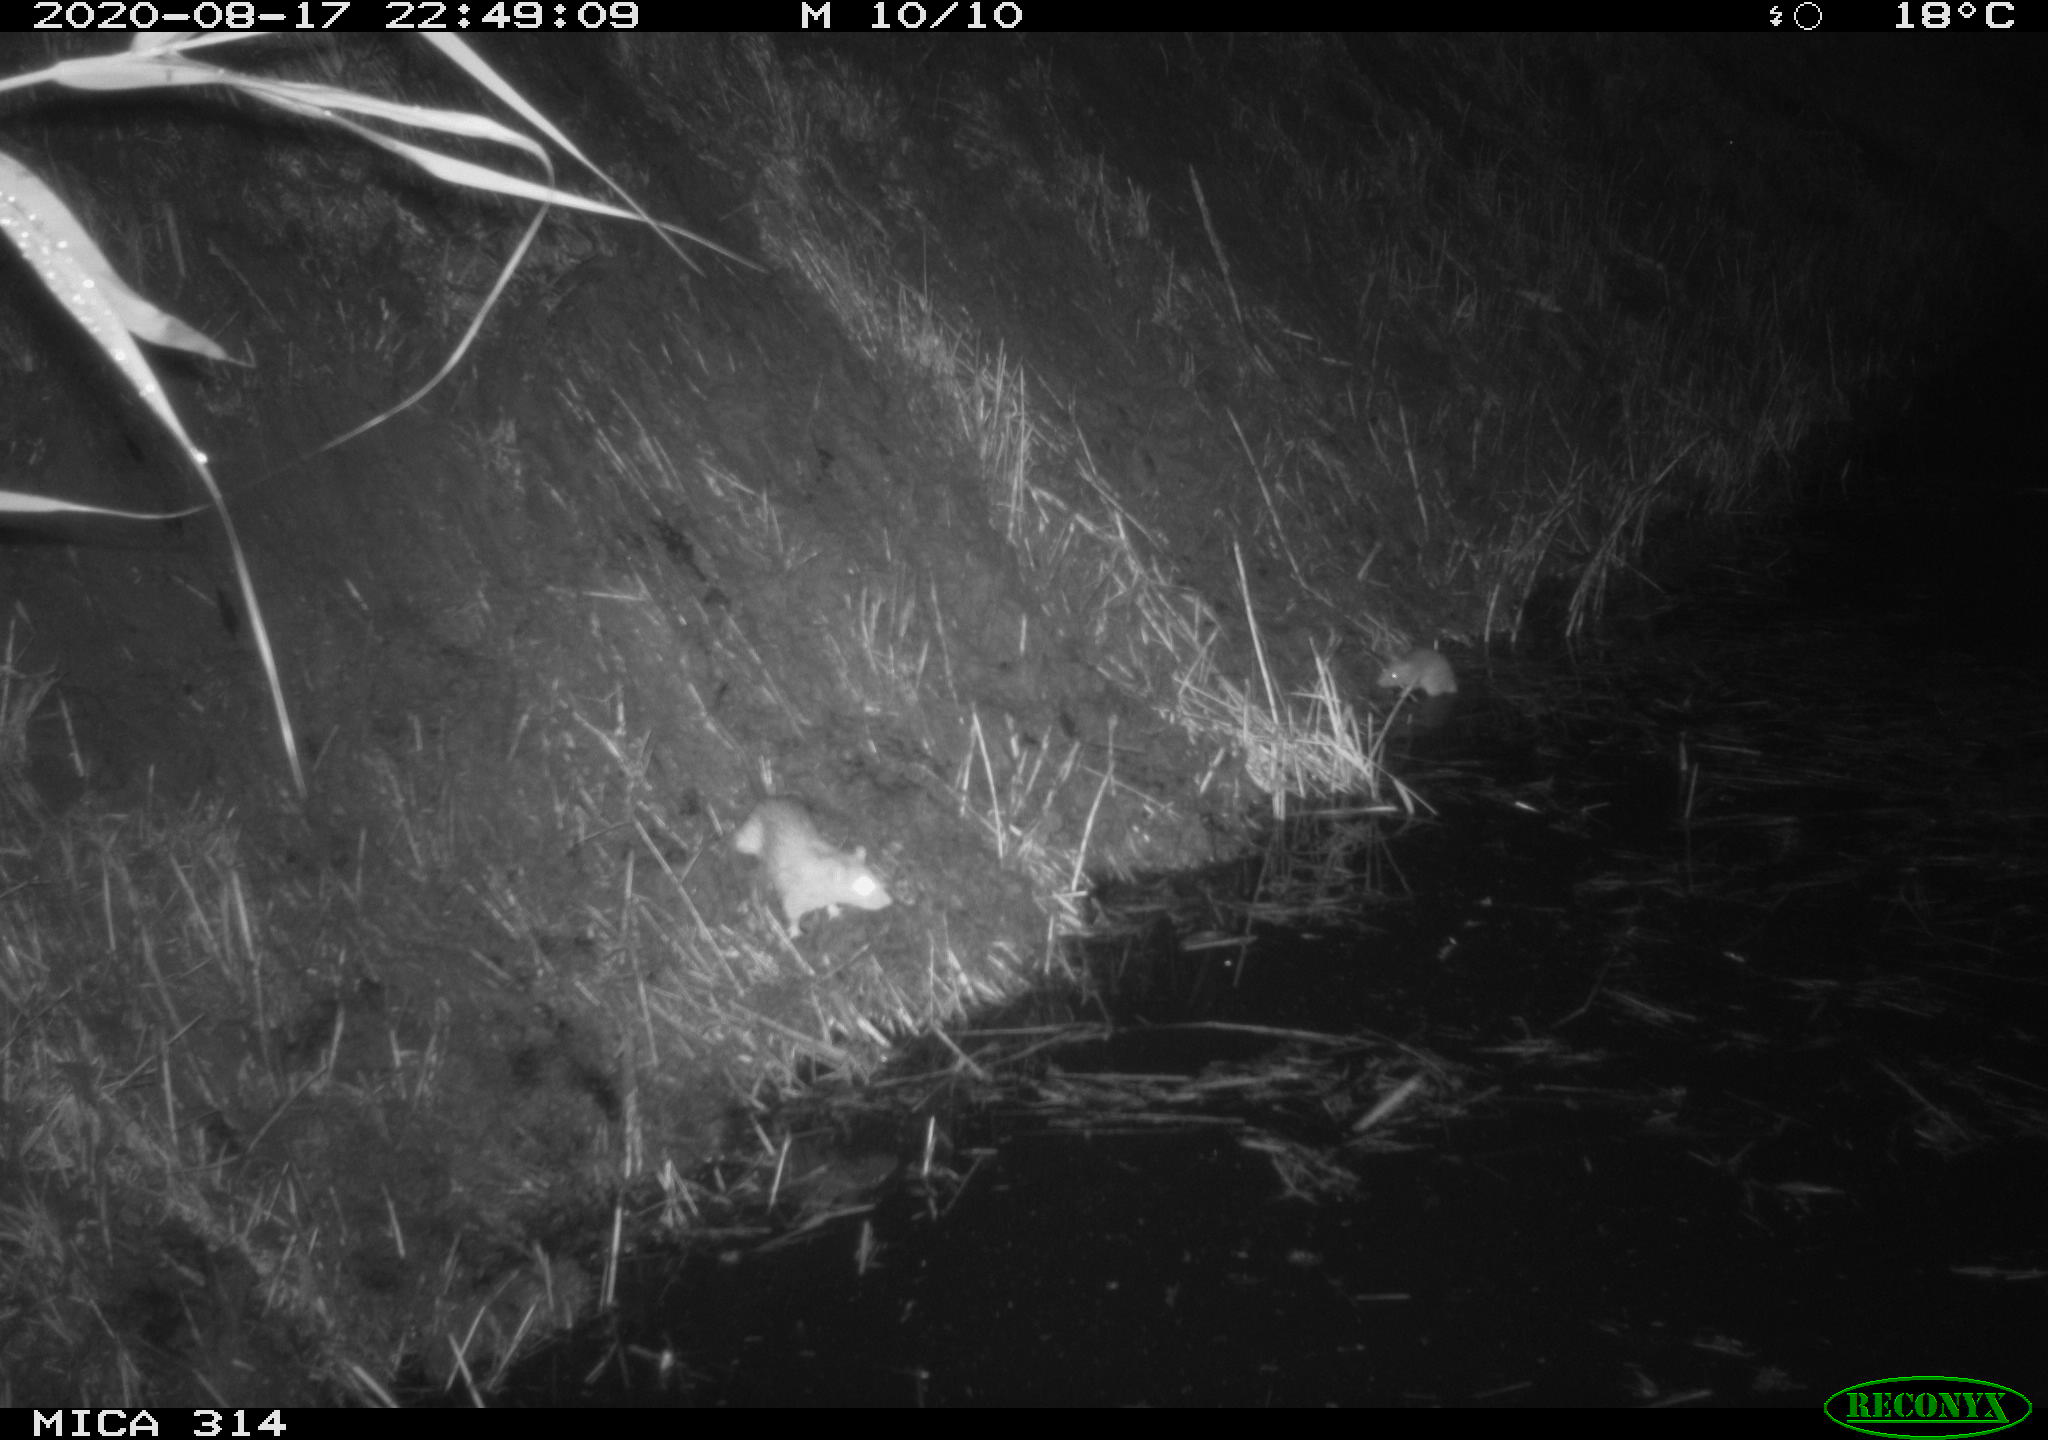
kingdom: Animalia
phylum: Chordata
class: Mammalia
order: Rodentia
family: Muridae
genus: Rattus
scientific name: Rattus norvegicus
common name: Brown rat
